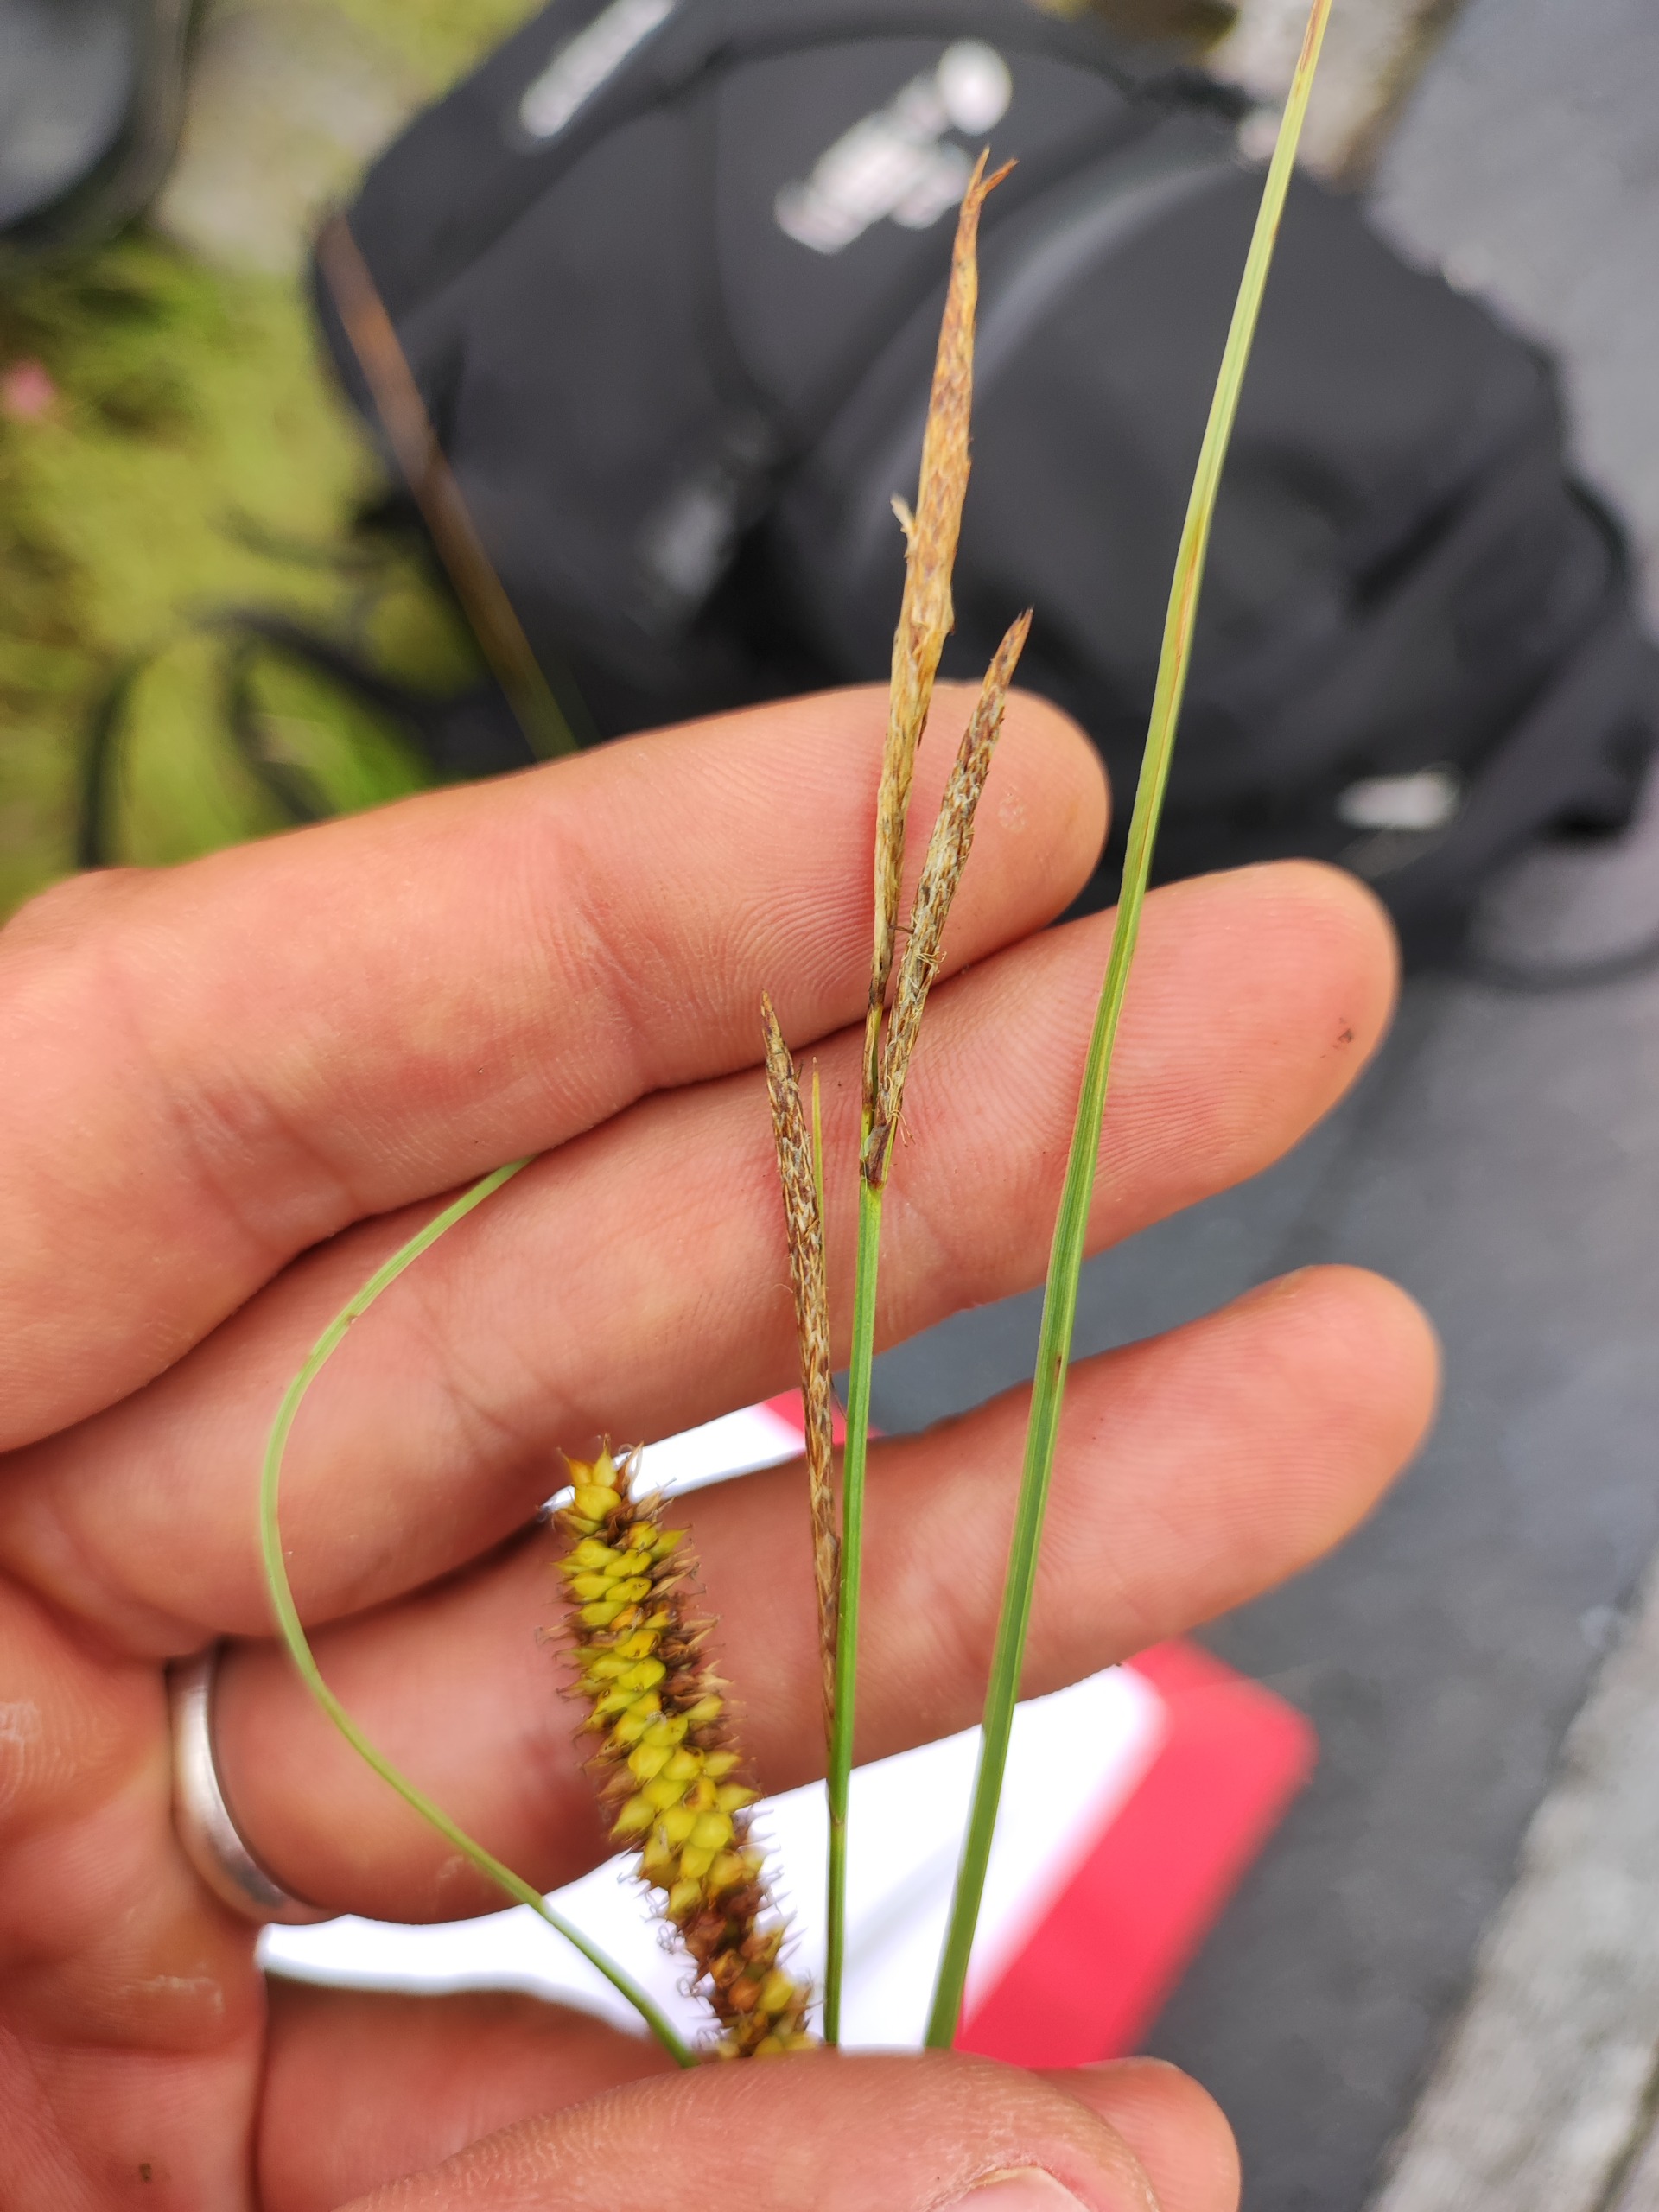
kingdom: Plantae
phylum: Tracheophyta
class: Liliopsida
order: Poales
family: Cyperaceae
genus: Carex
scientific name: Carex rostrata
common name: Næb-star
